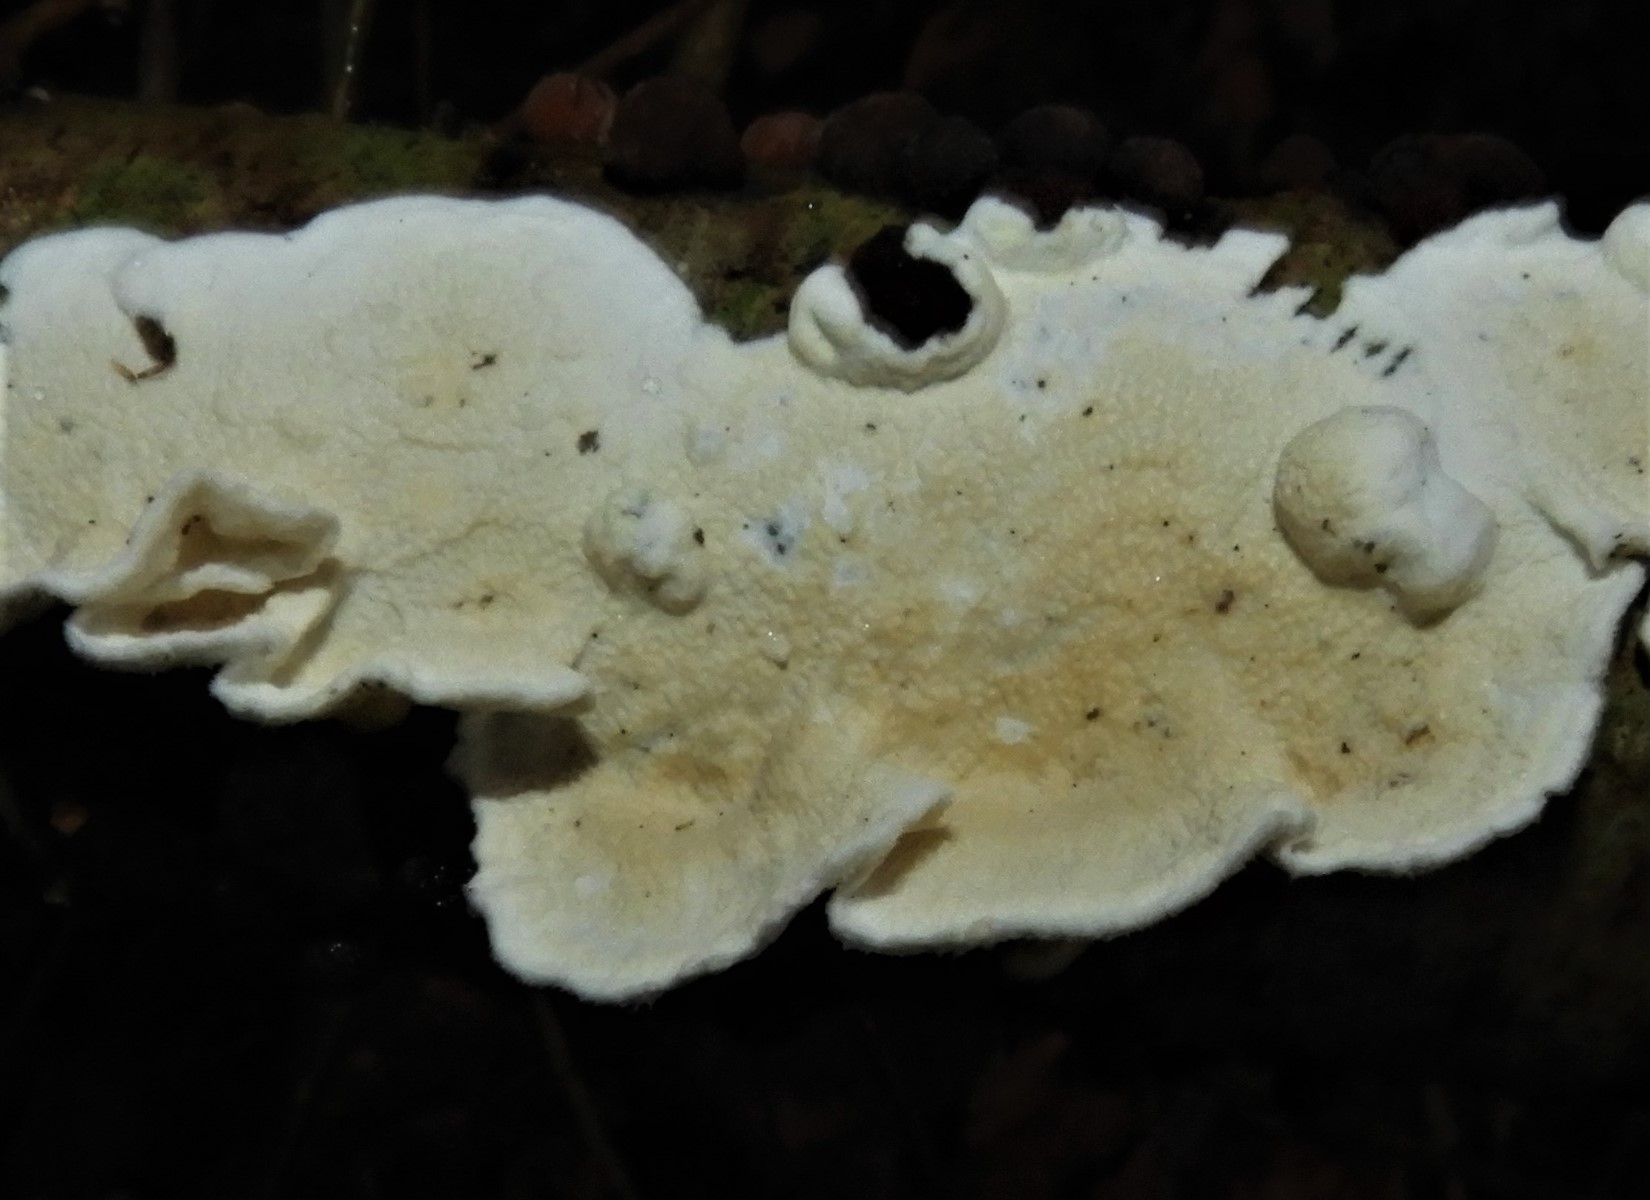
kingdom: Fungi
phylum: Basidiomycota
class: Agaricomycetes
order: Polyporales
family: Irpicaceae
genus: Byssomerulius
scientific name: Byssomerulius corium
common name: læder-åresvamp
